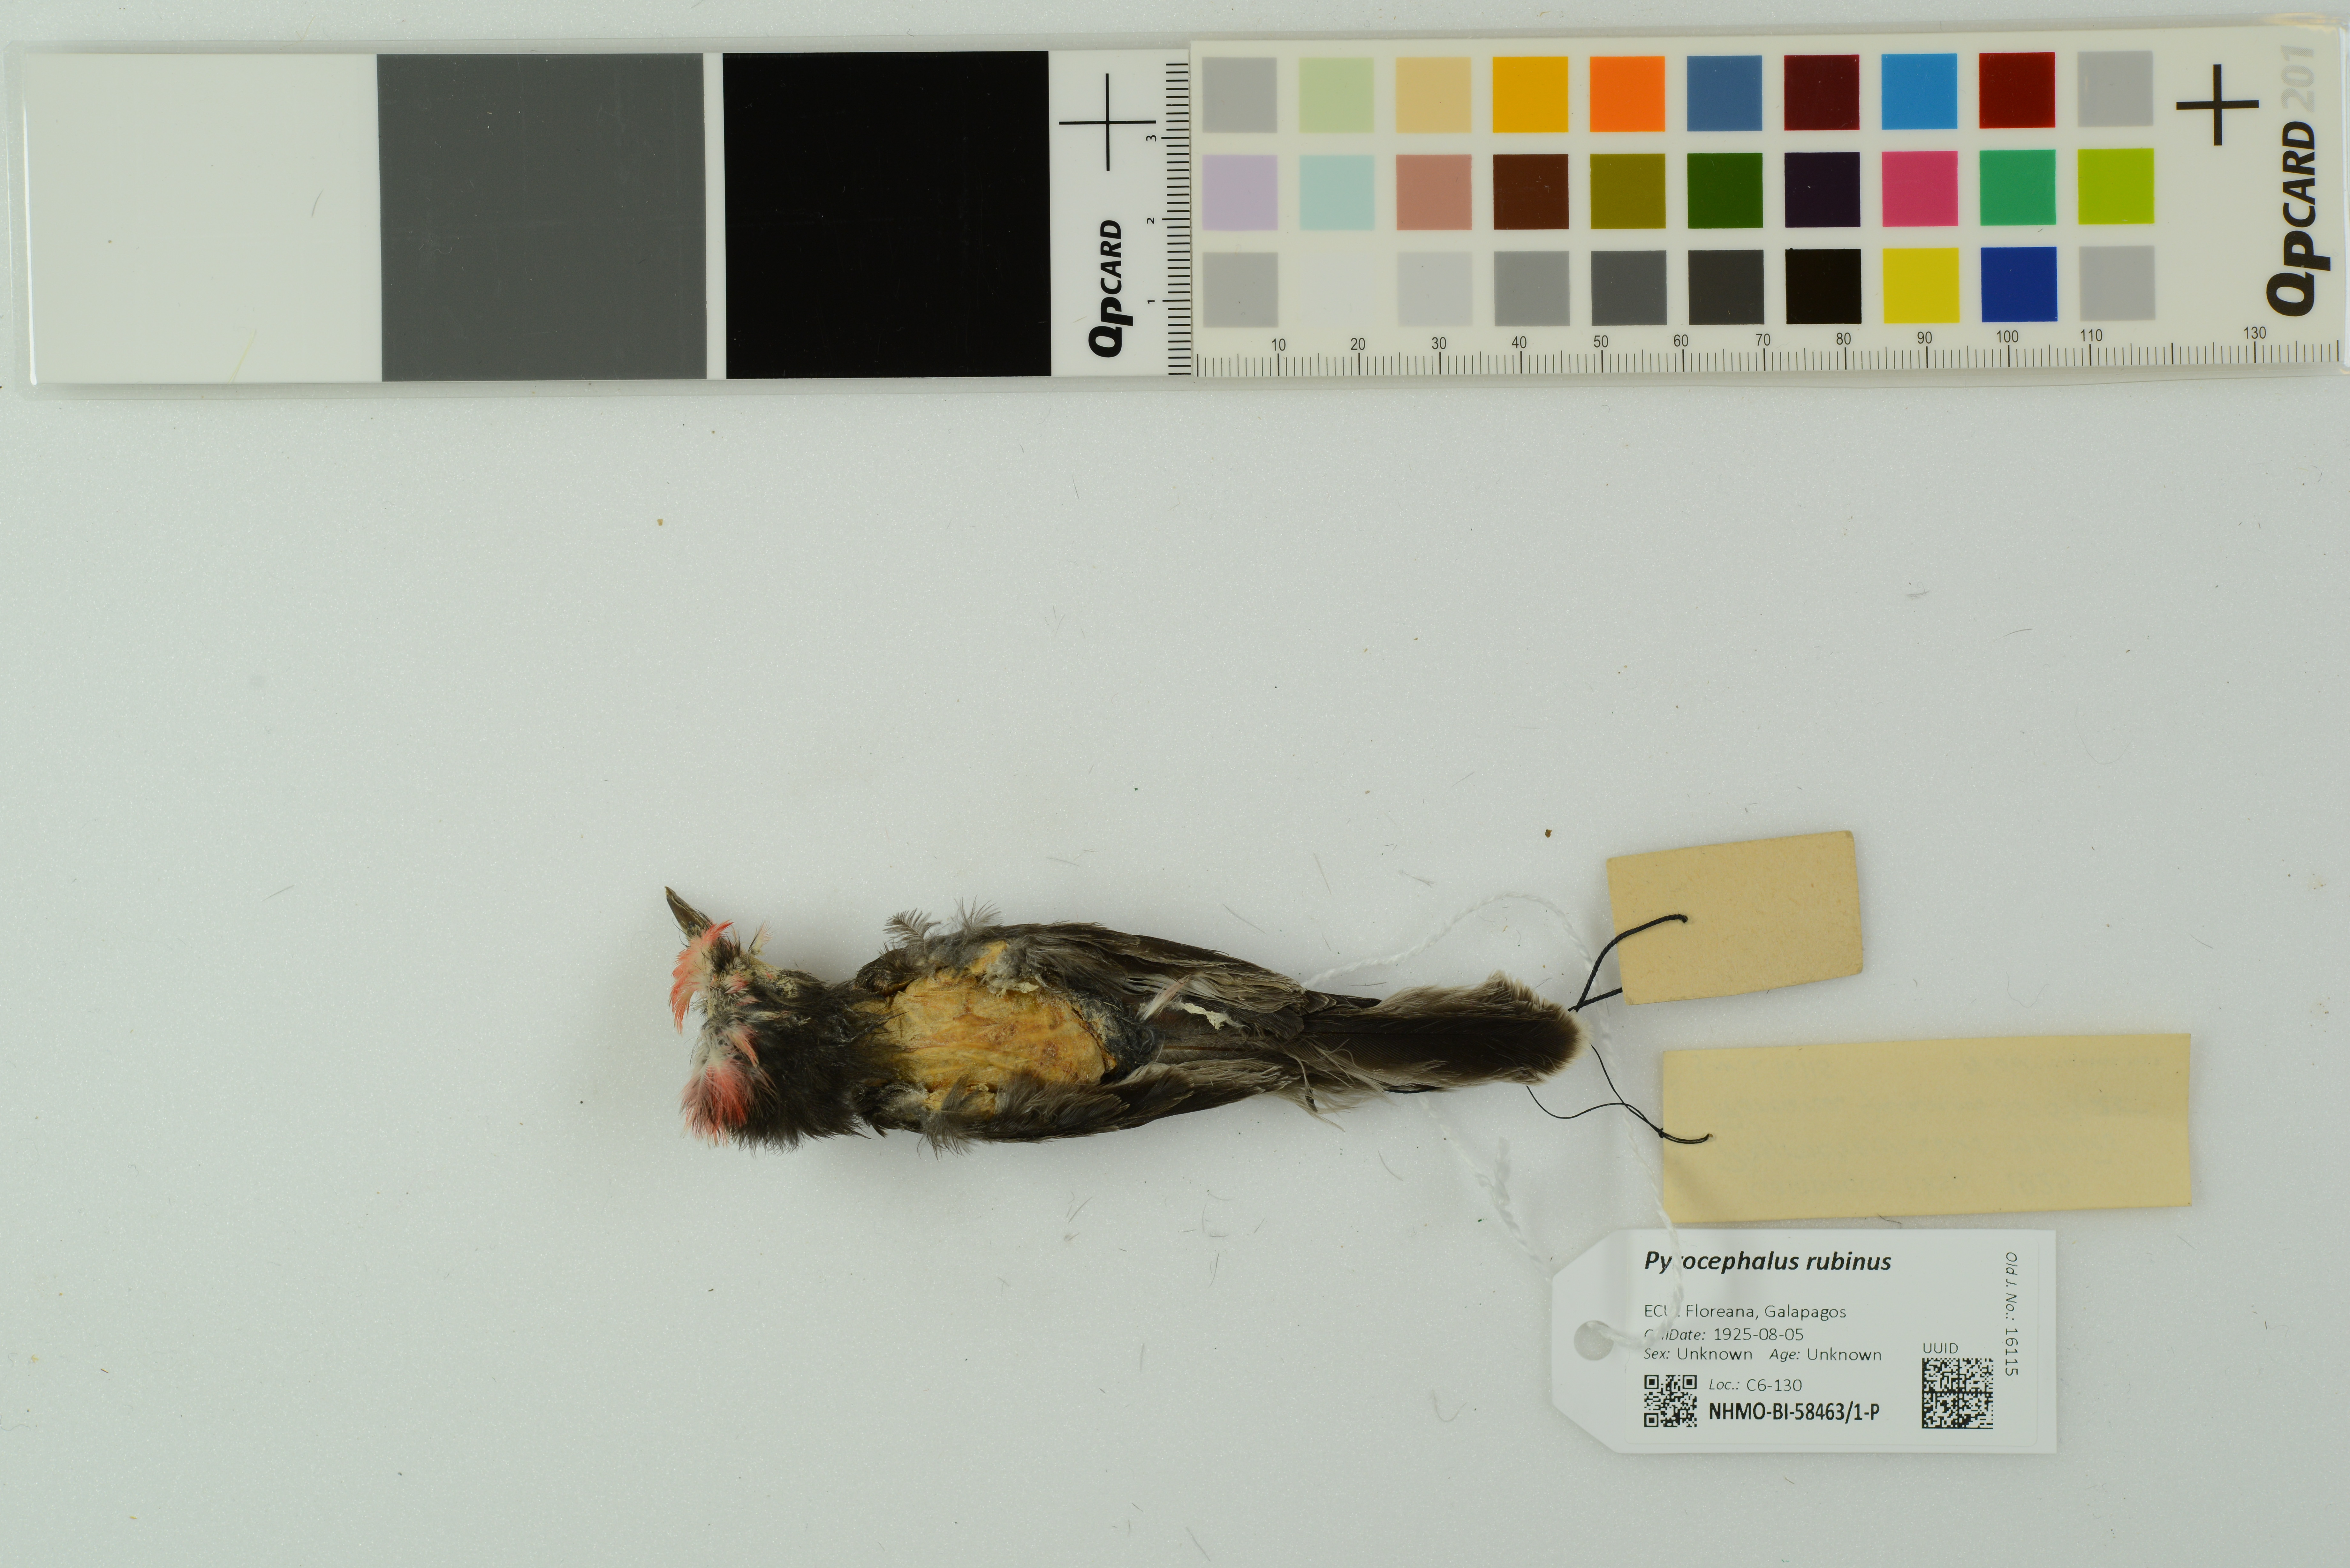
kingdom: Animalia
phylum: Chordata
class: Aves
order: Passeriformes
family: Tyrannidae
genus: Pyrocephalus
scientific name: Pyrocephalus rubinus
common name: Vermilion flycatcher
